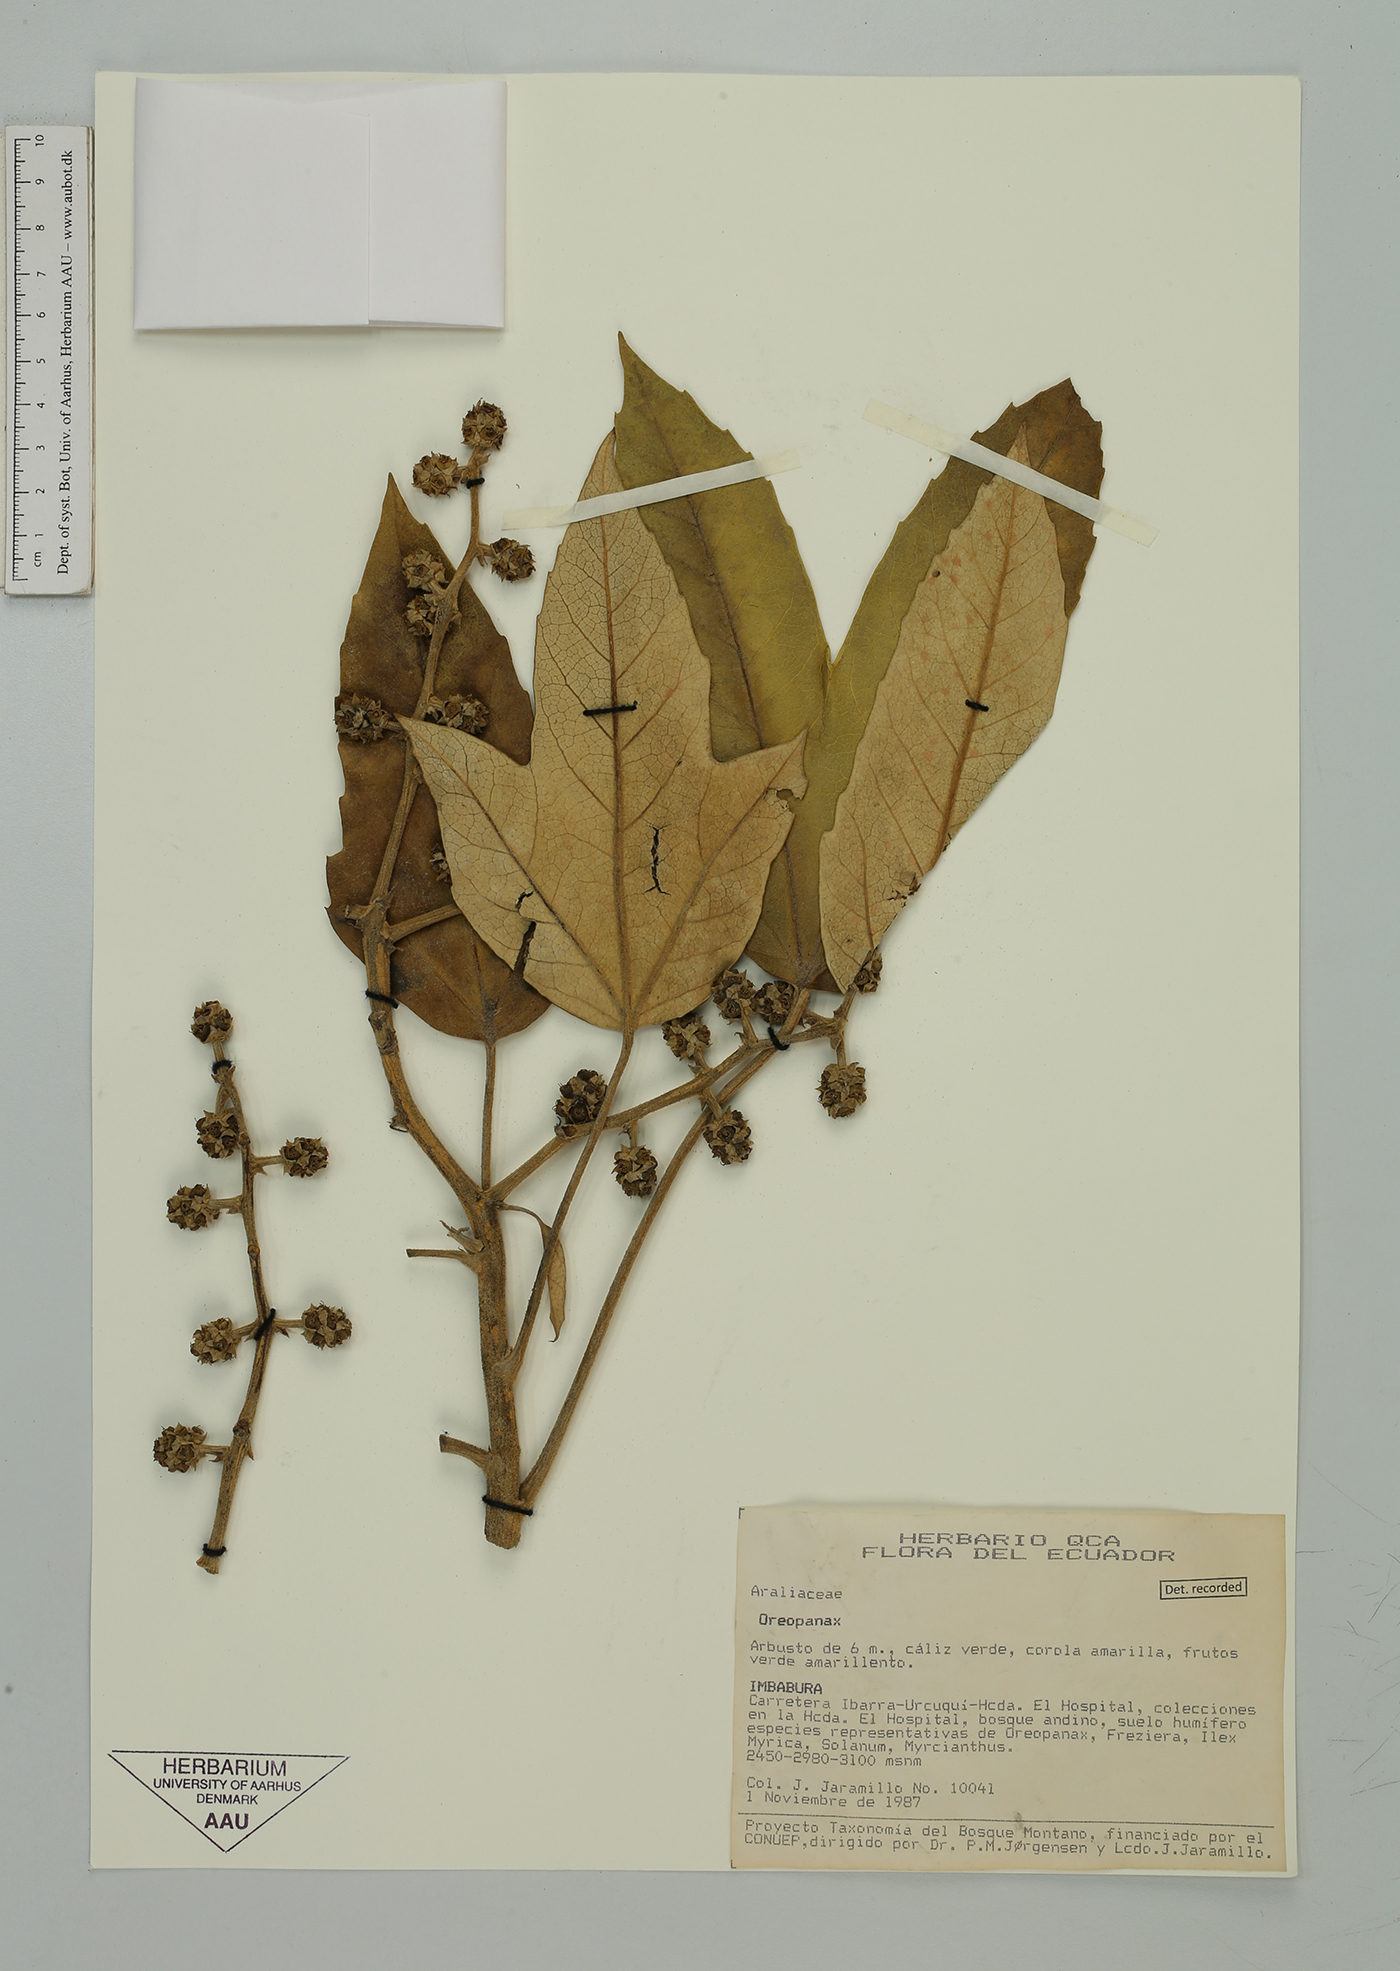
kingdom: Plantae
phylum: Tracheophyta
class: Magnoliopsida
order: Apiales
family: Araliaceae
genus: Oreopanax
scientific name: Oreopanax
